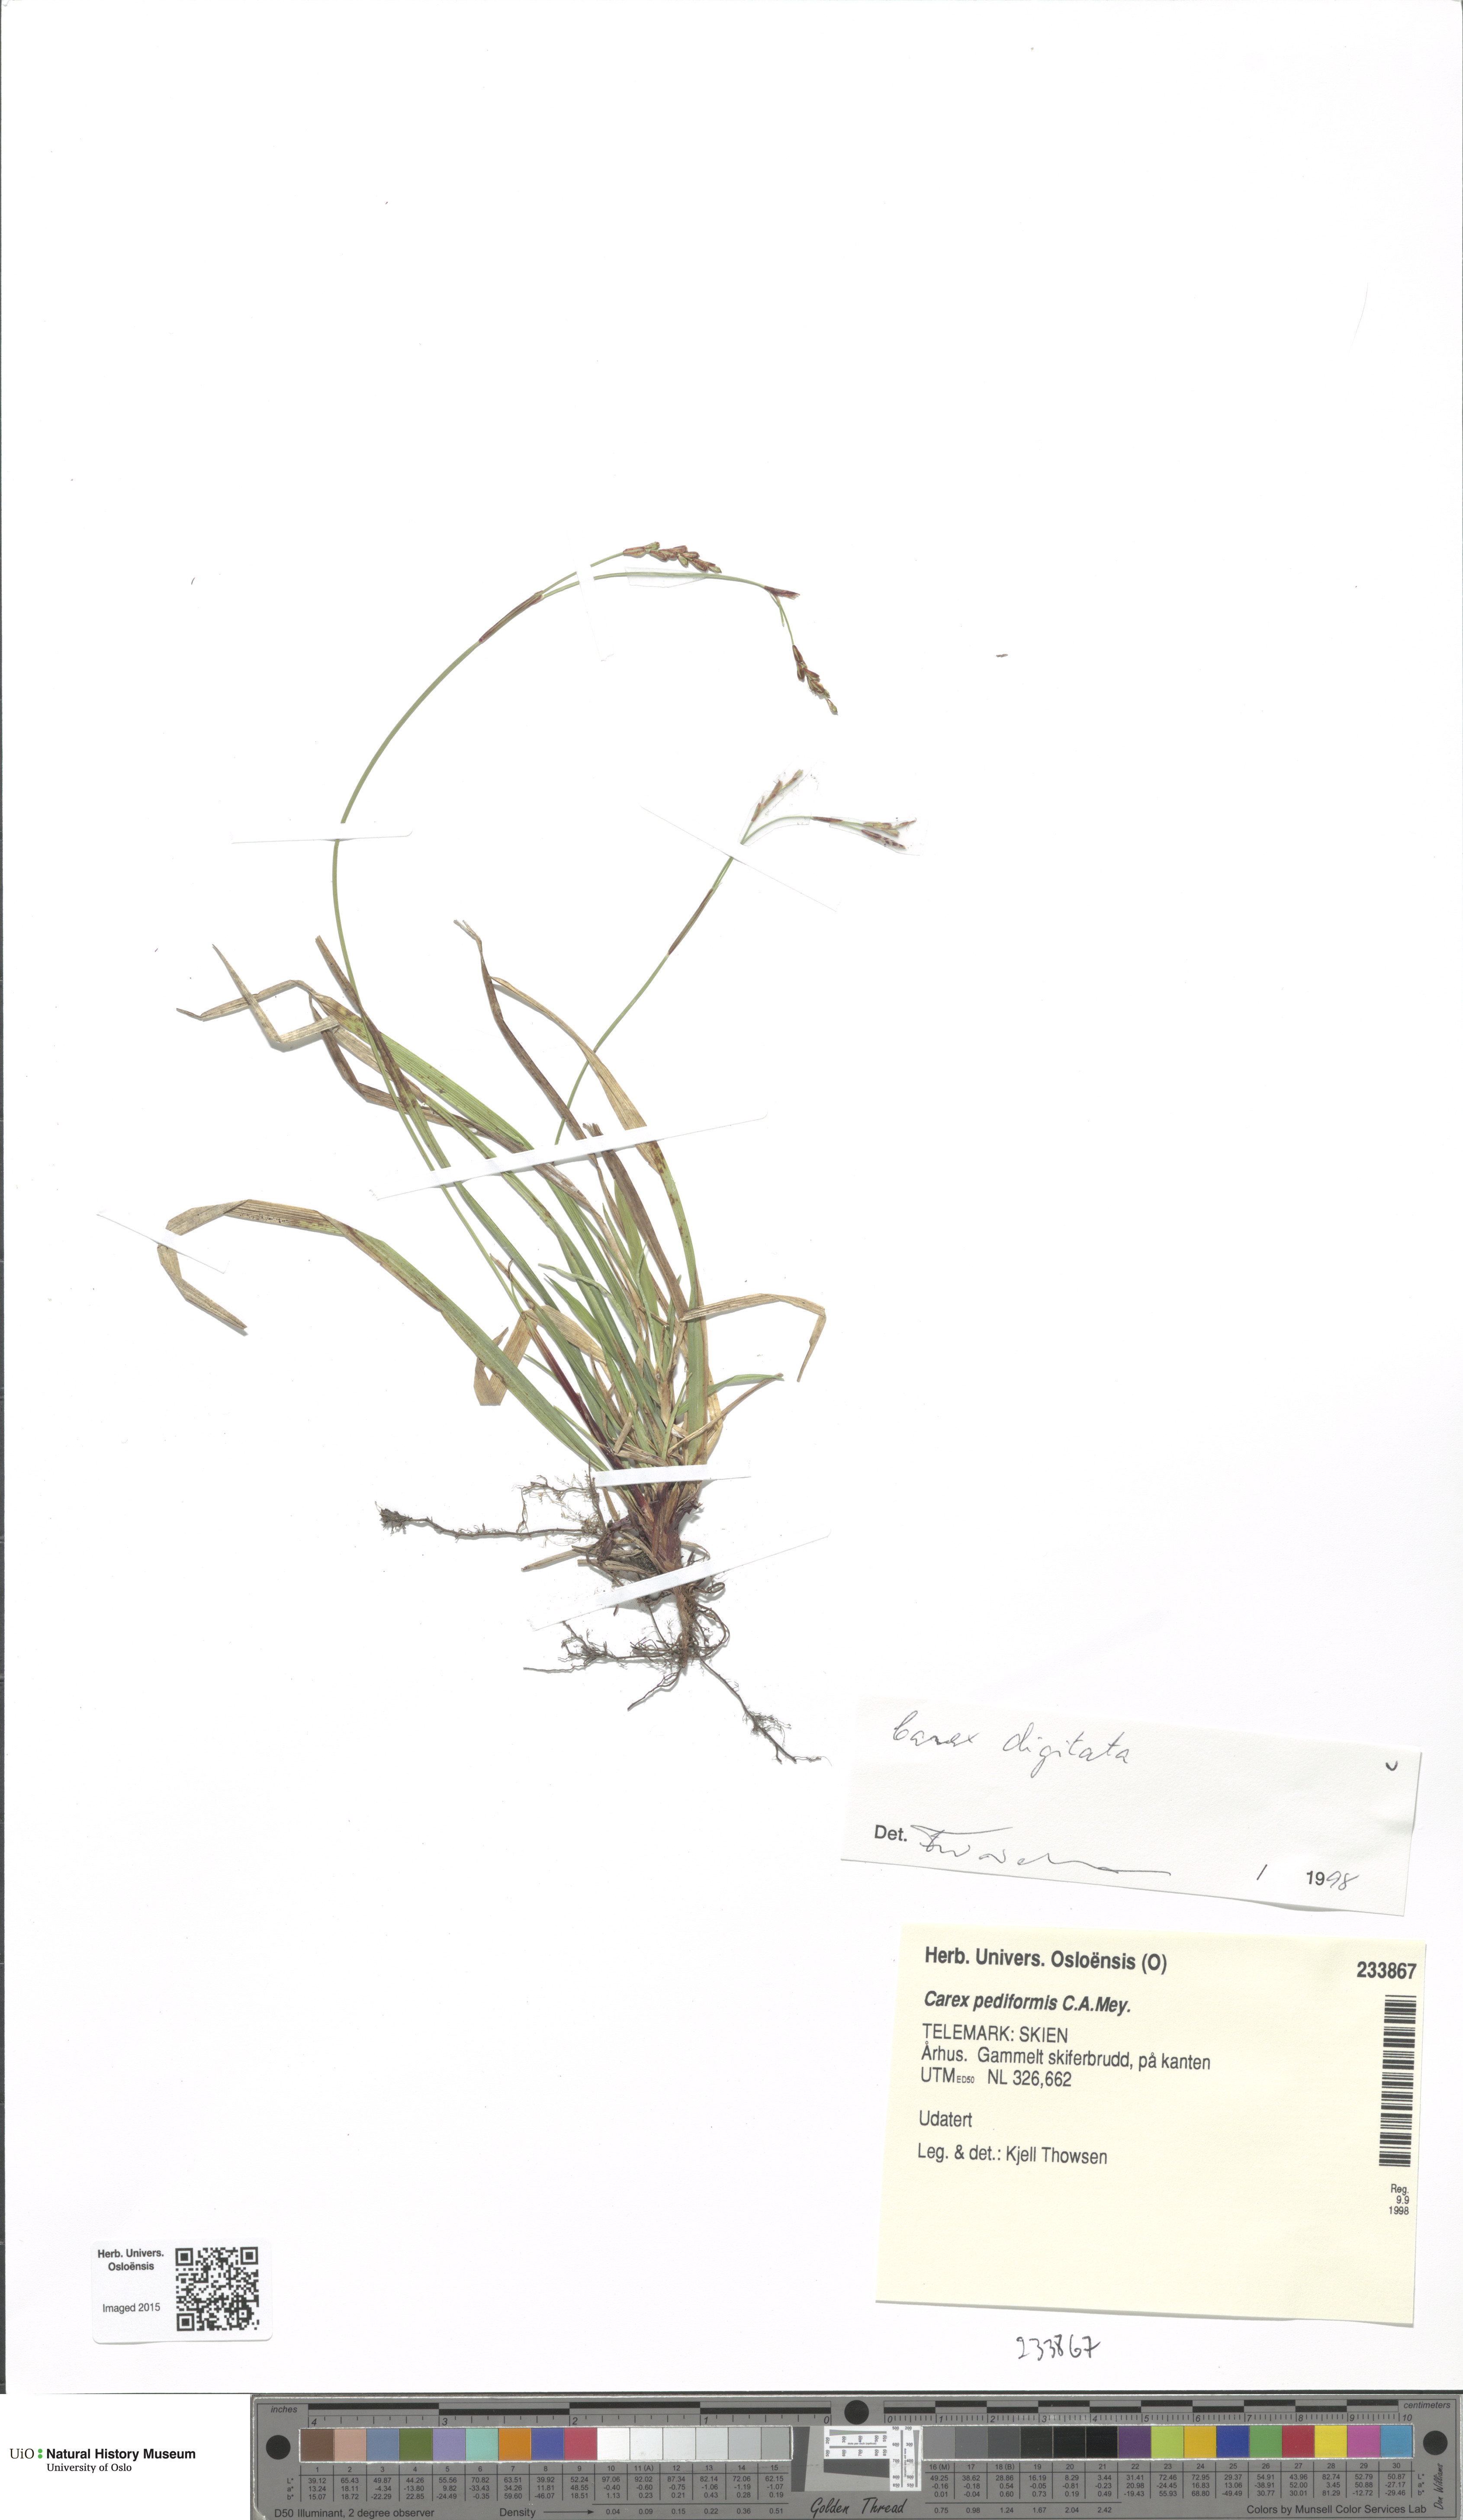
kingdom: Plantae
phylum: Tracheophyta
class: Liliopsida
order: Poales
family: Cyperaceae
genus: Carex
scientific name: Carex digitata
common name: Fingered sedge
